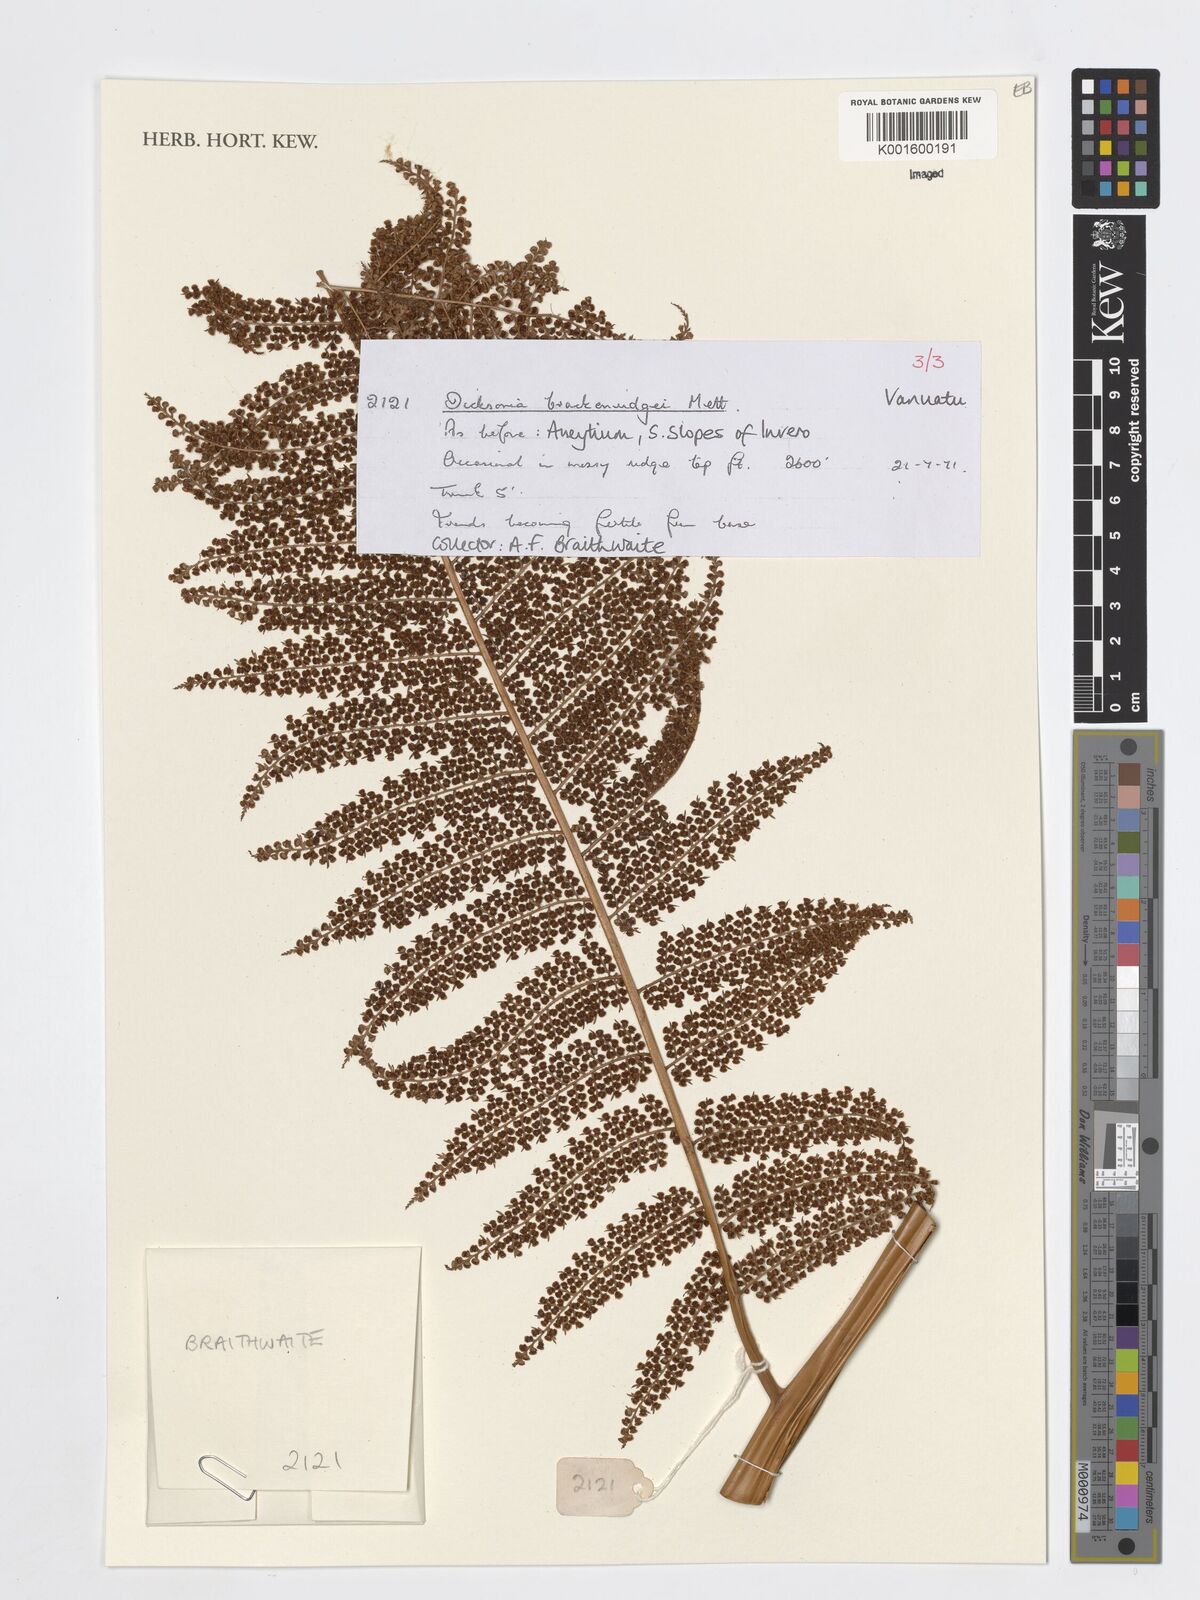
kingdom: Plantae
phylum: Tracheophyta
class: Polypodiopsida
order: Cyatheales
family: Dicksoniaceae
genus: Dicksonia
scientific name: Dicksonia brackenridgei
